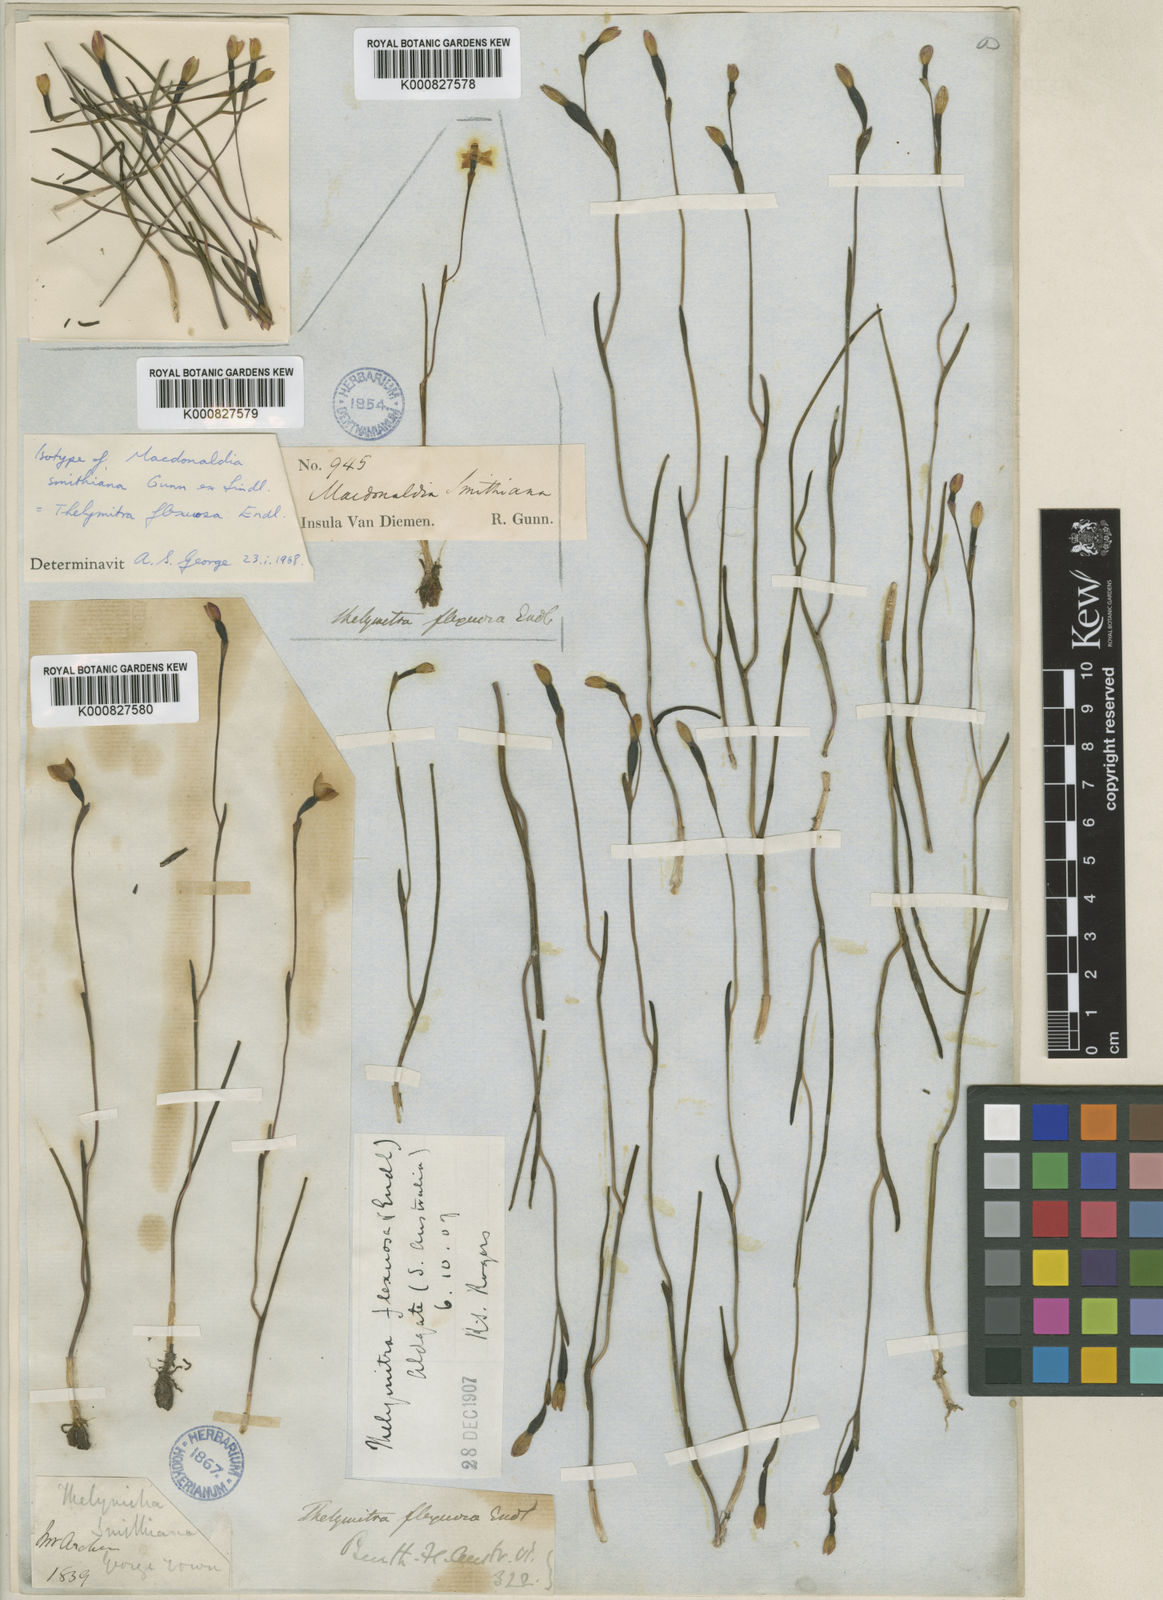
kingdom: Plantae
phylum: Tracheophyta
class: Liliopsida
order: Asparagales
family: Orchidaceae
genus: Thelymitra
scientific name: Thelymitra flexuosa
